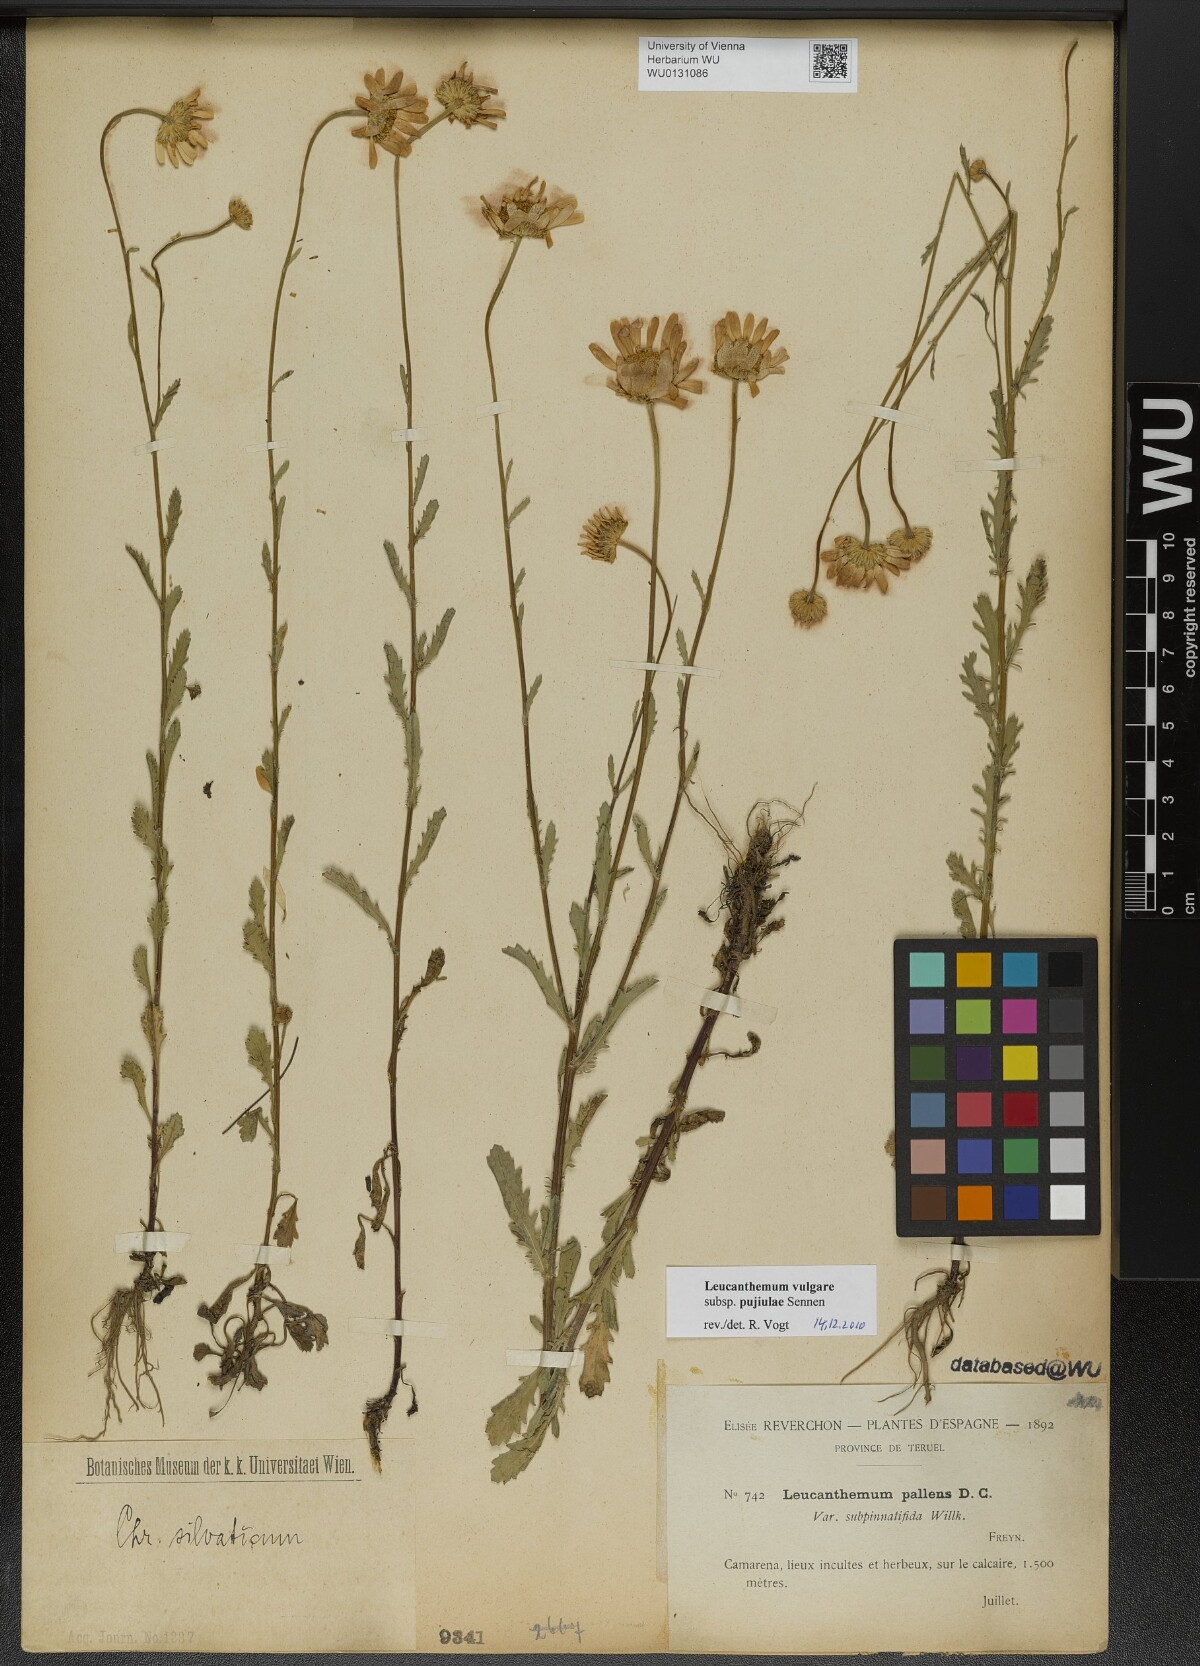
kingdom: Plantae
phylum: Tracheophyta
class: Magnoliopsida
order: Asterales
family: Asteraceae
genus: Leucanthemum
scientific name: Leucanthemum ageratifolium
